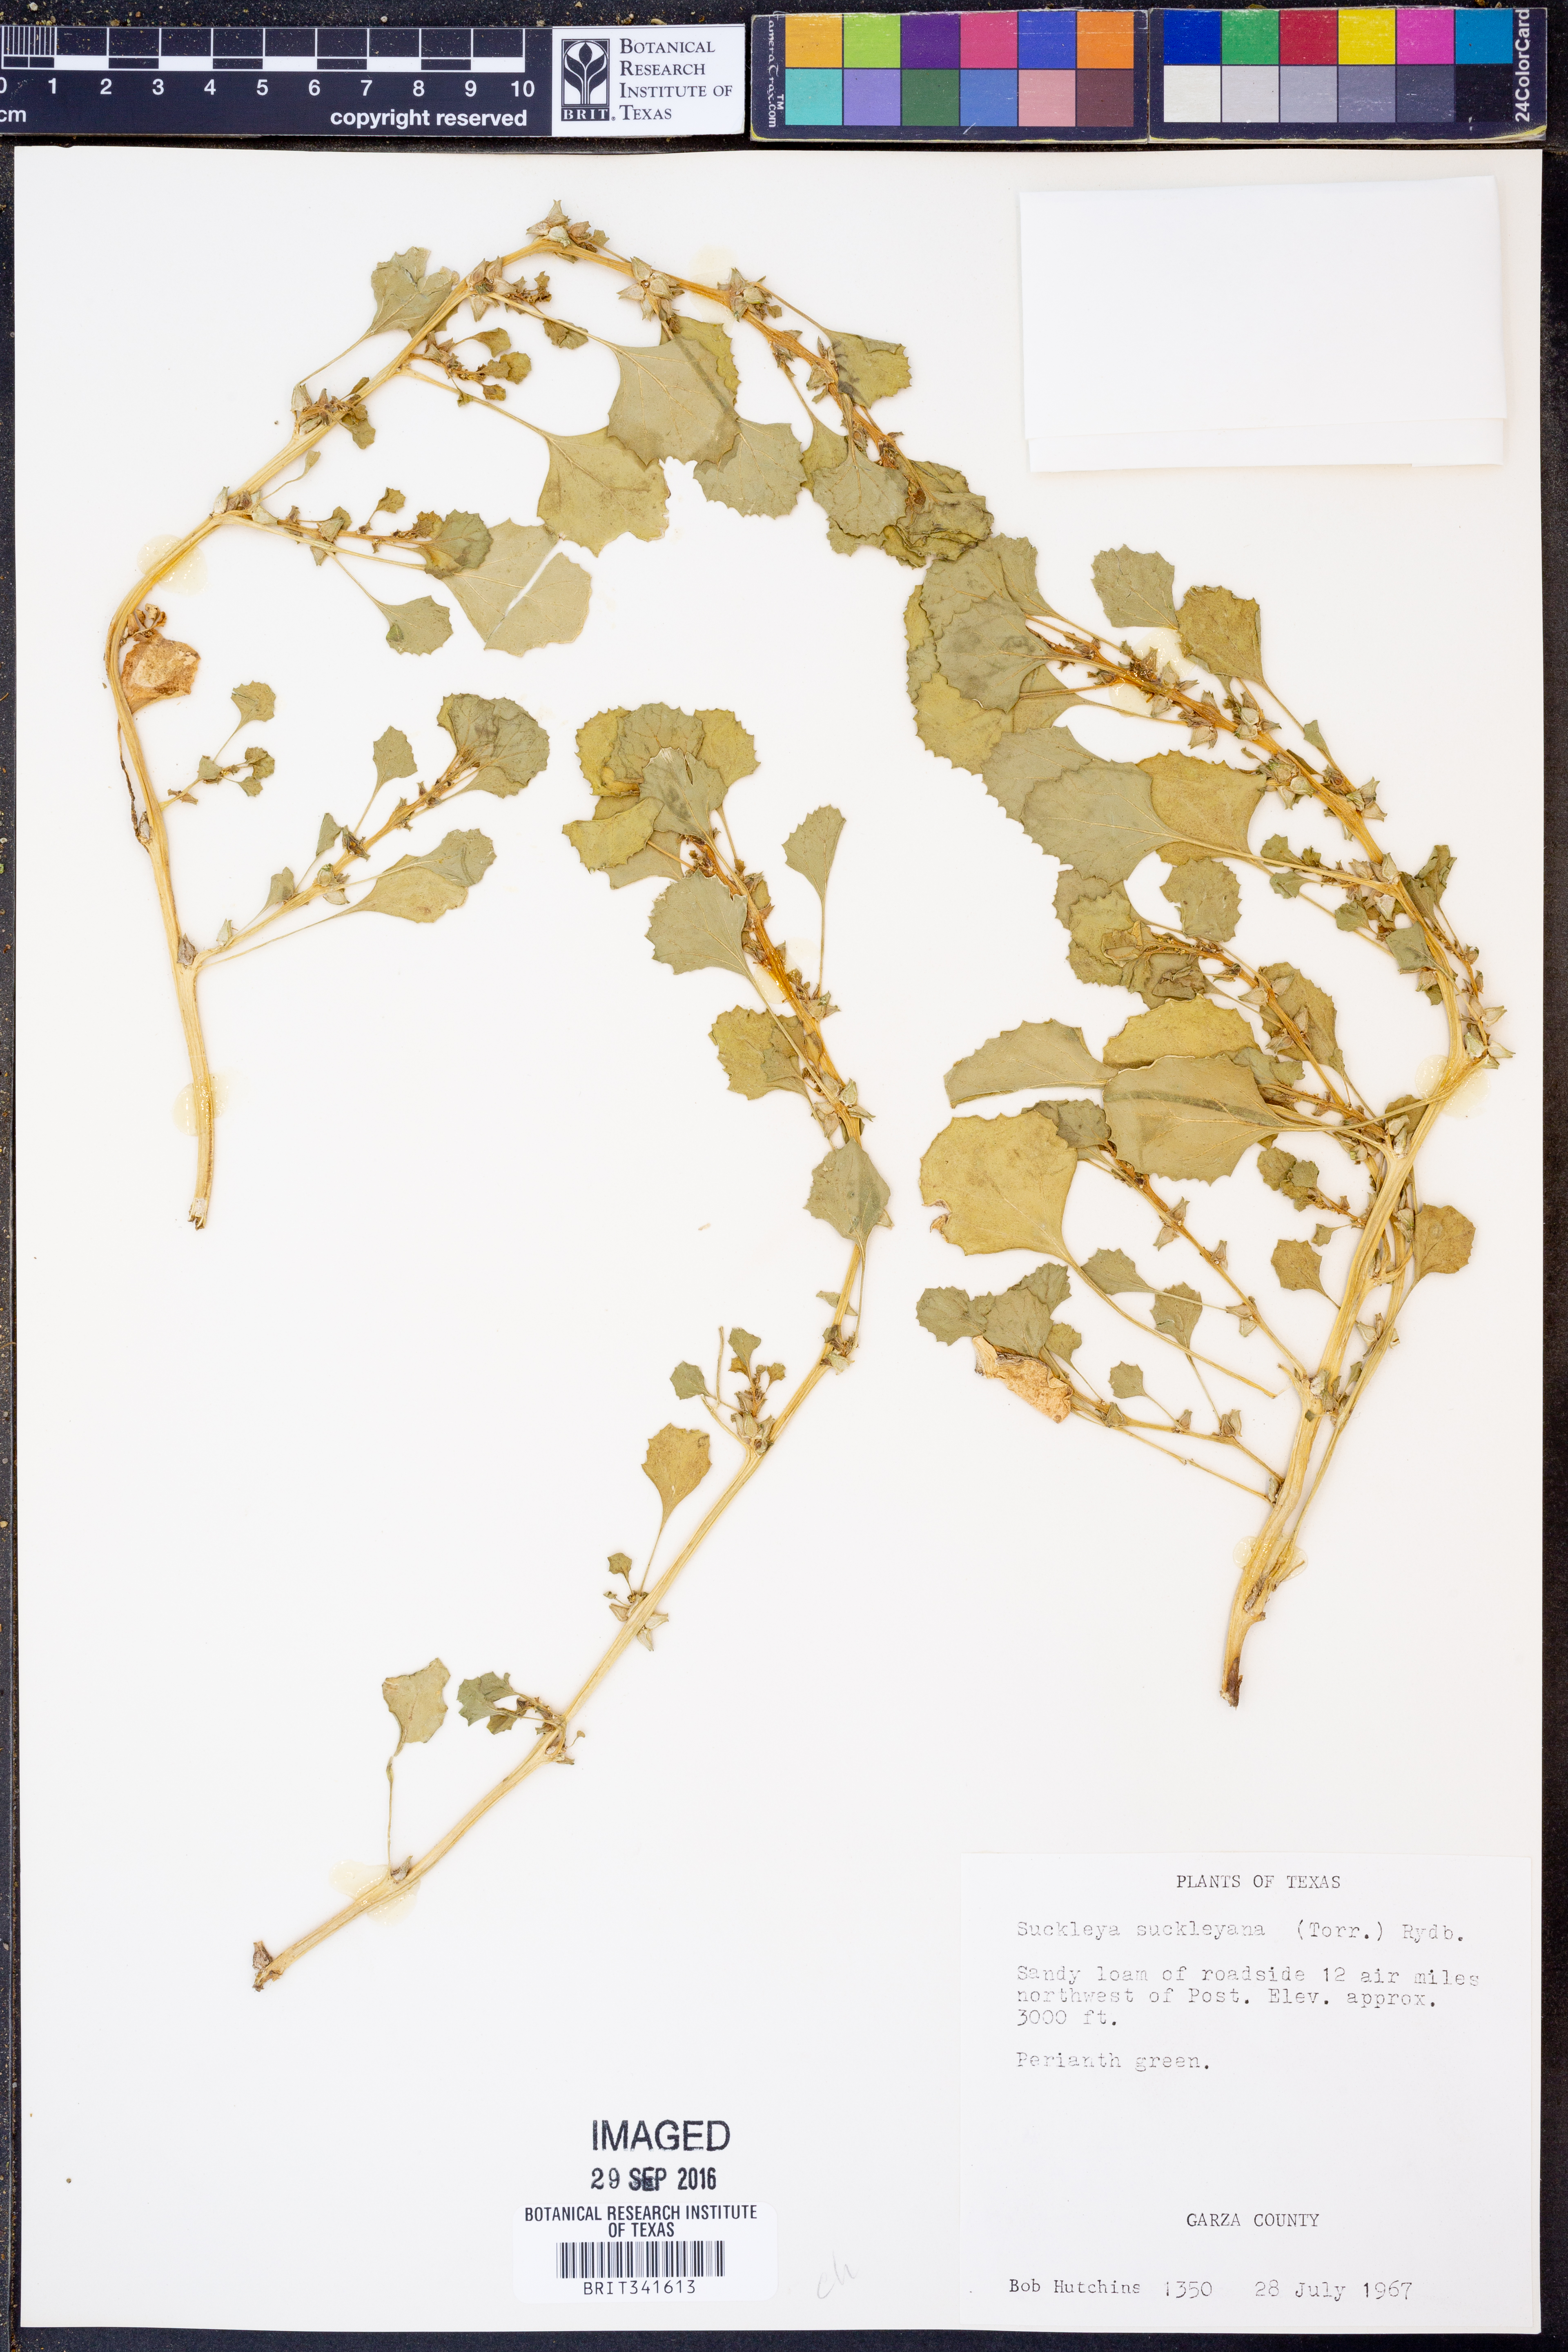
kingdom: Plantae
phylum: Tracheophyta
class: Magnoliopsida
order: Caryophyllales
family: Amaranthaceae
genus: Suckleya
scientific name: Suckleya suckleyana
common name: Poison suckleya
